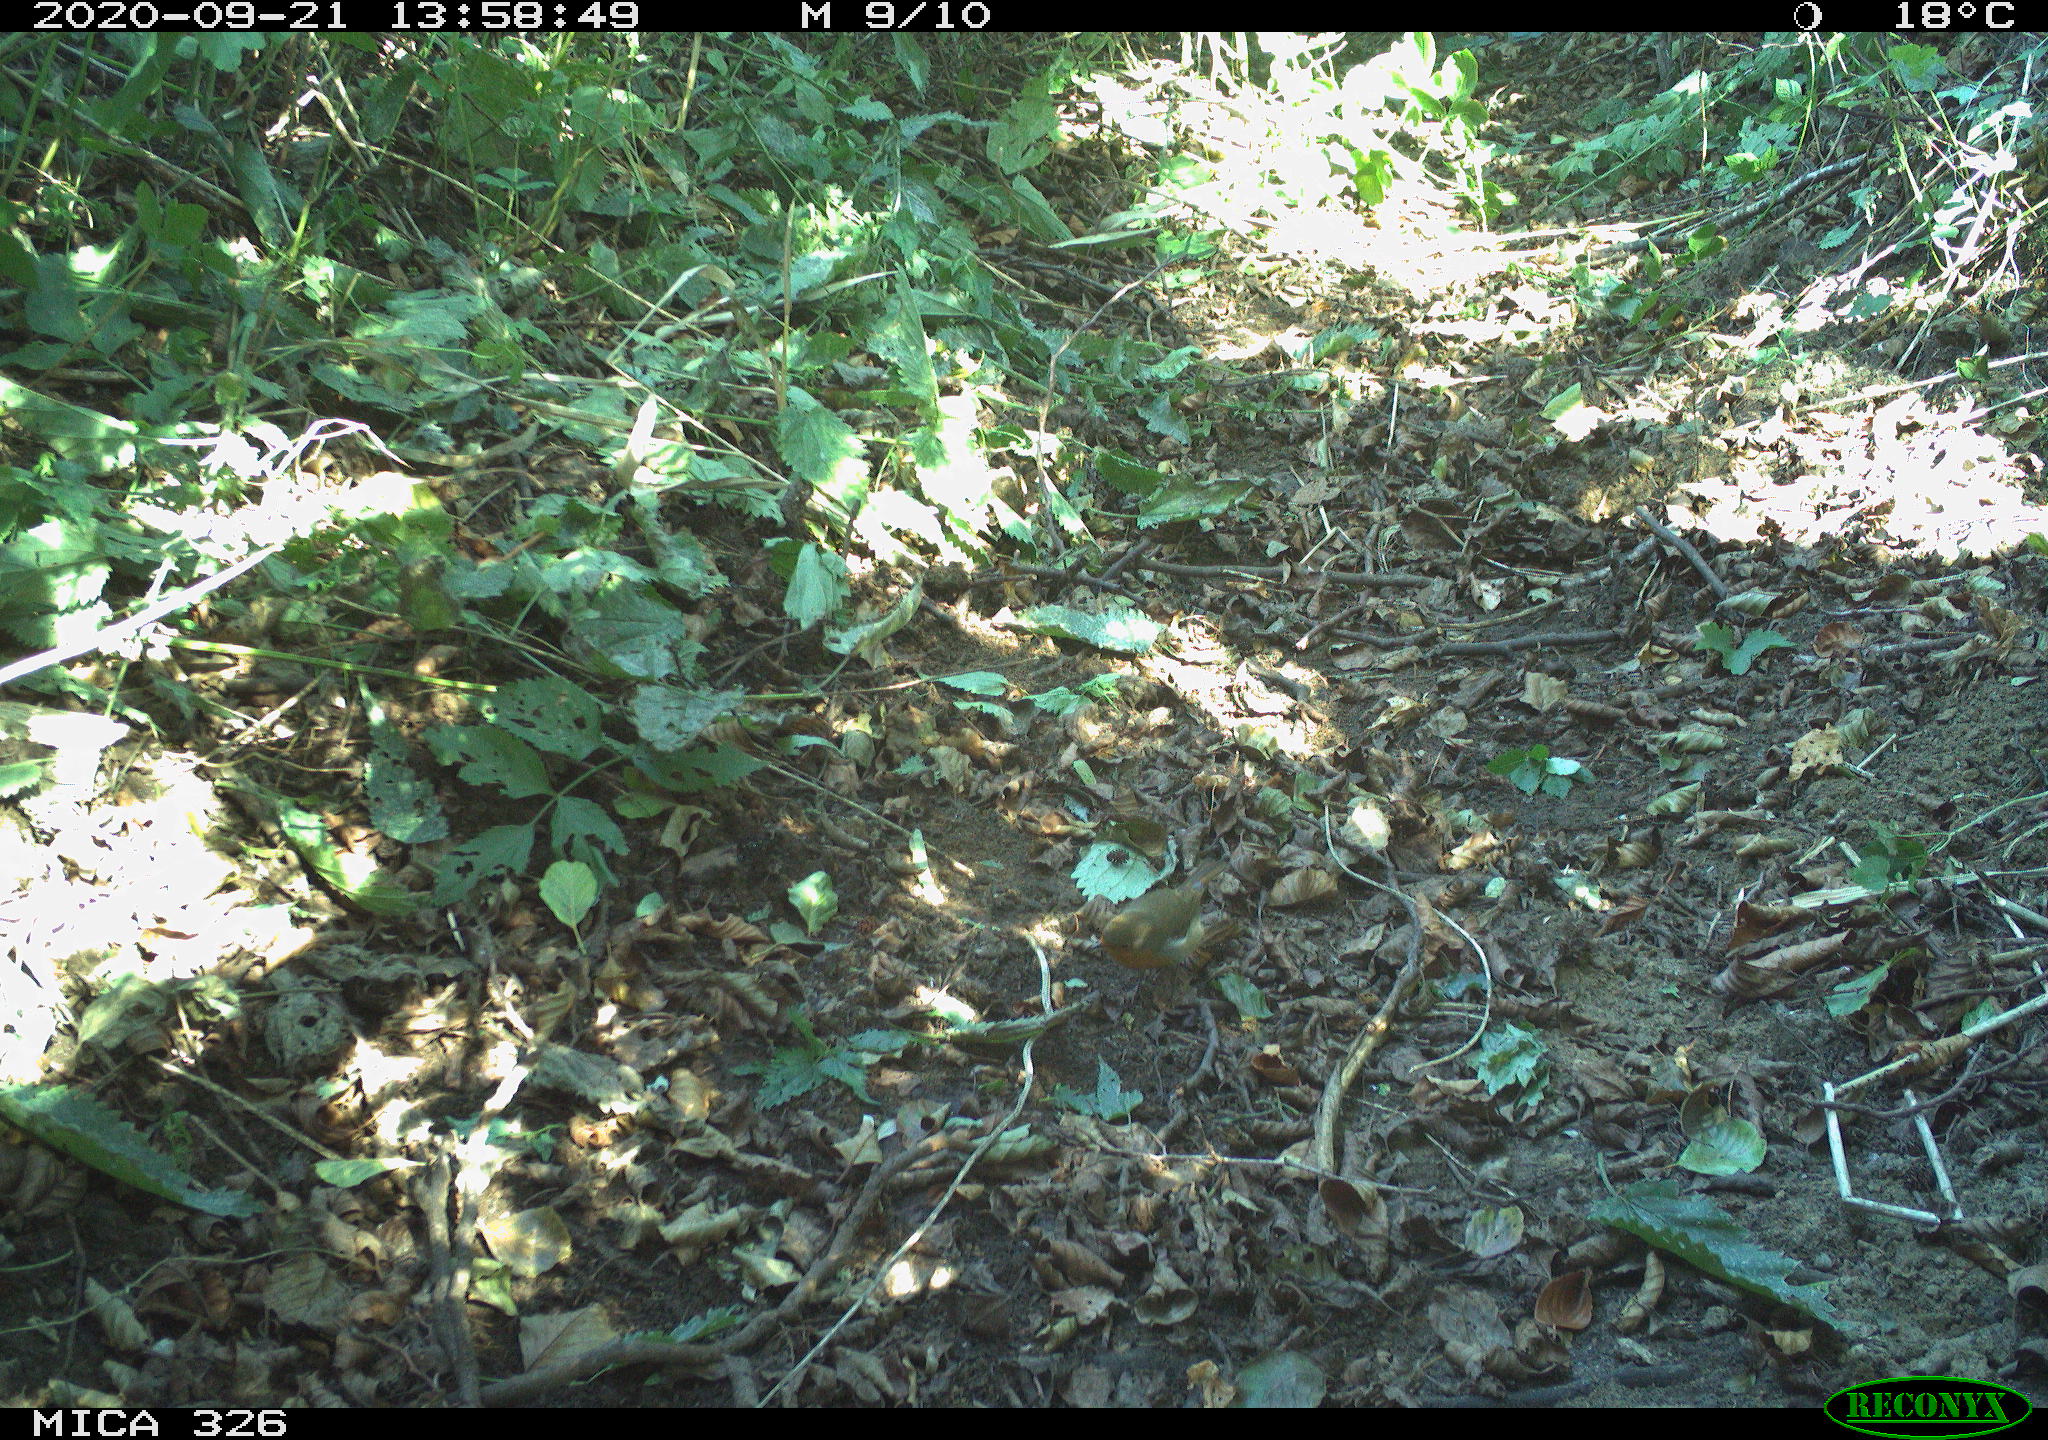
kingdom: Animalia
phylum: Chordata
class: Aves
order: Passeriformes
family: Muscicapidae
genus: Erithacus
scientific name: Erithacus rubecula
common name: European robin
